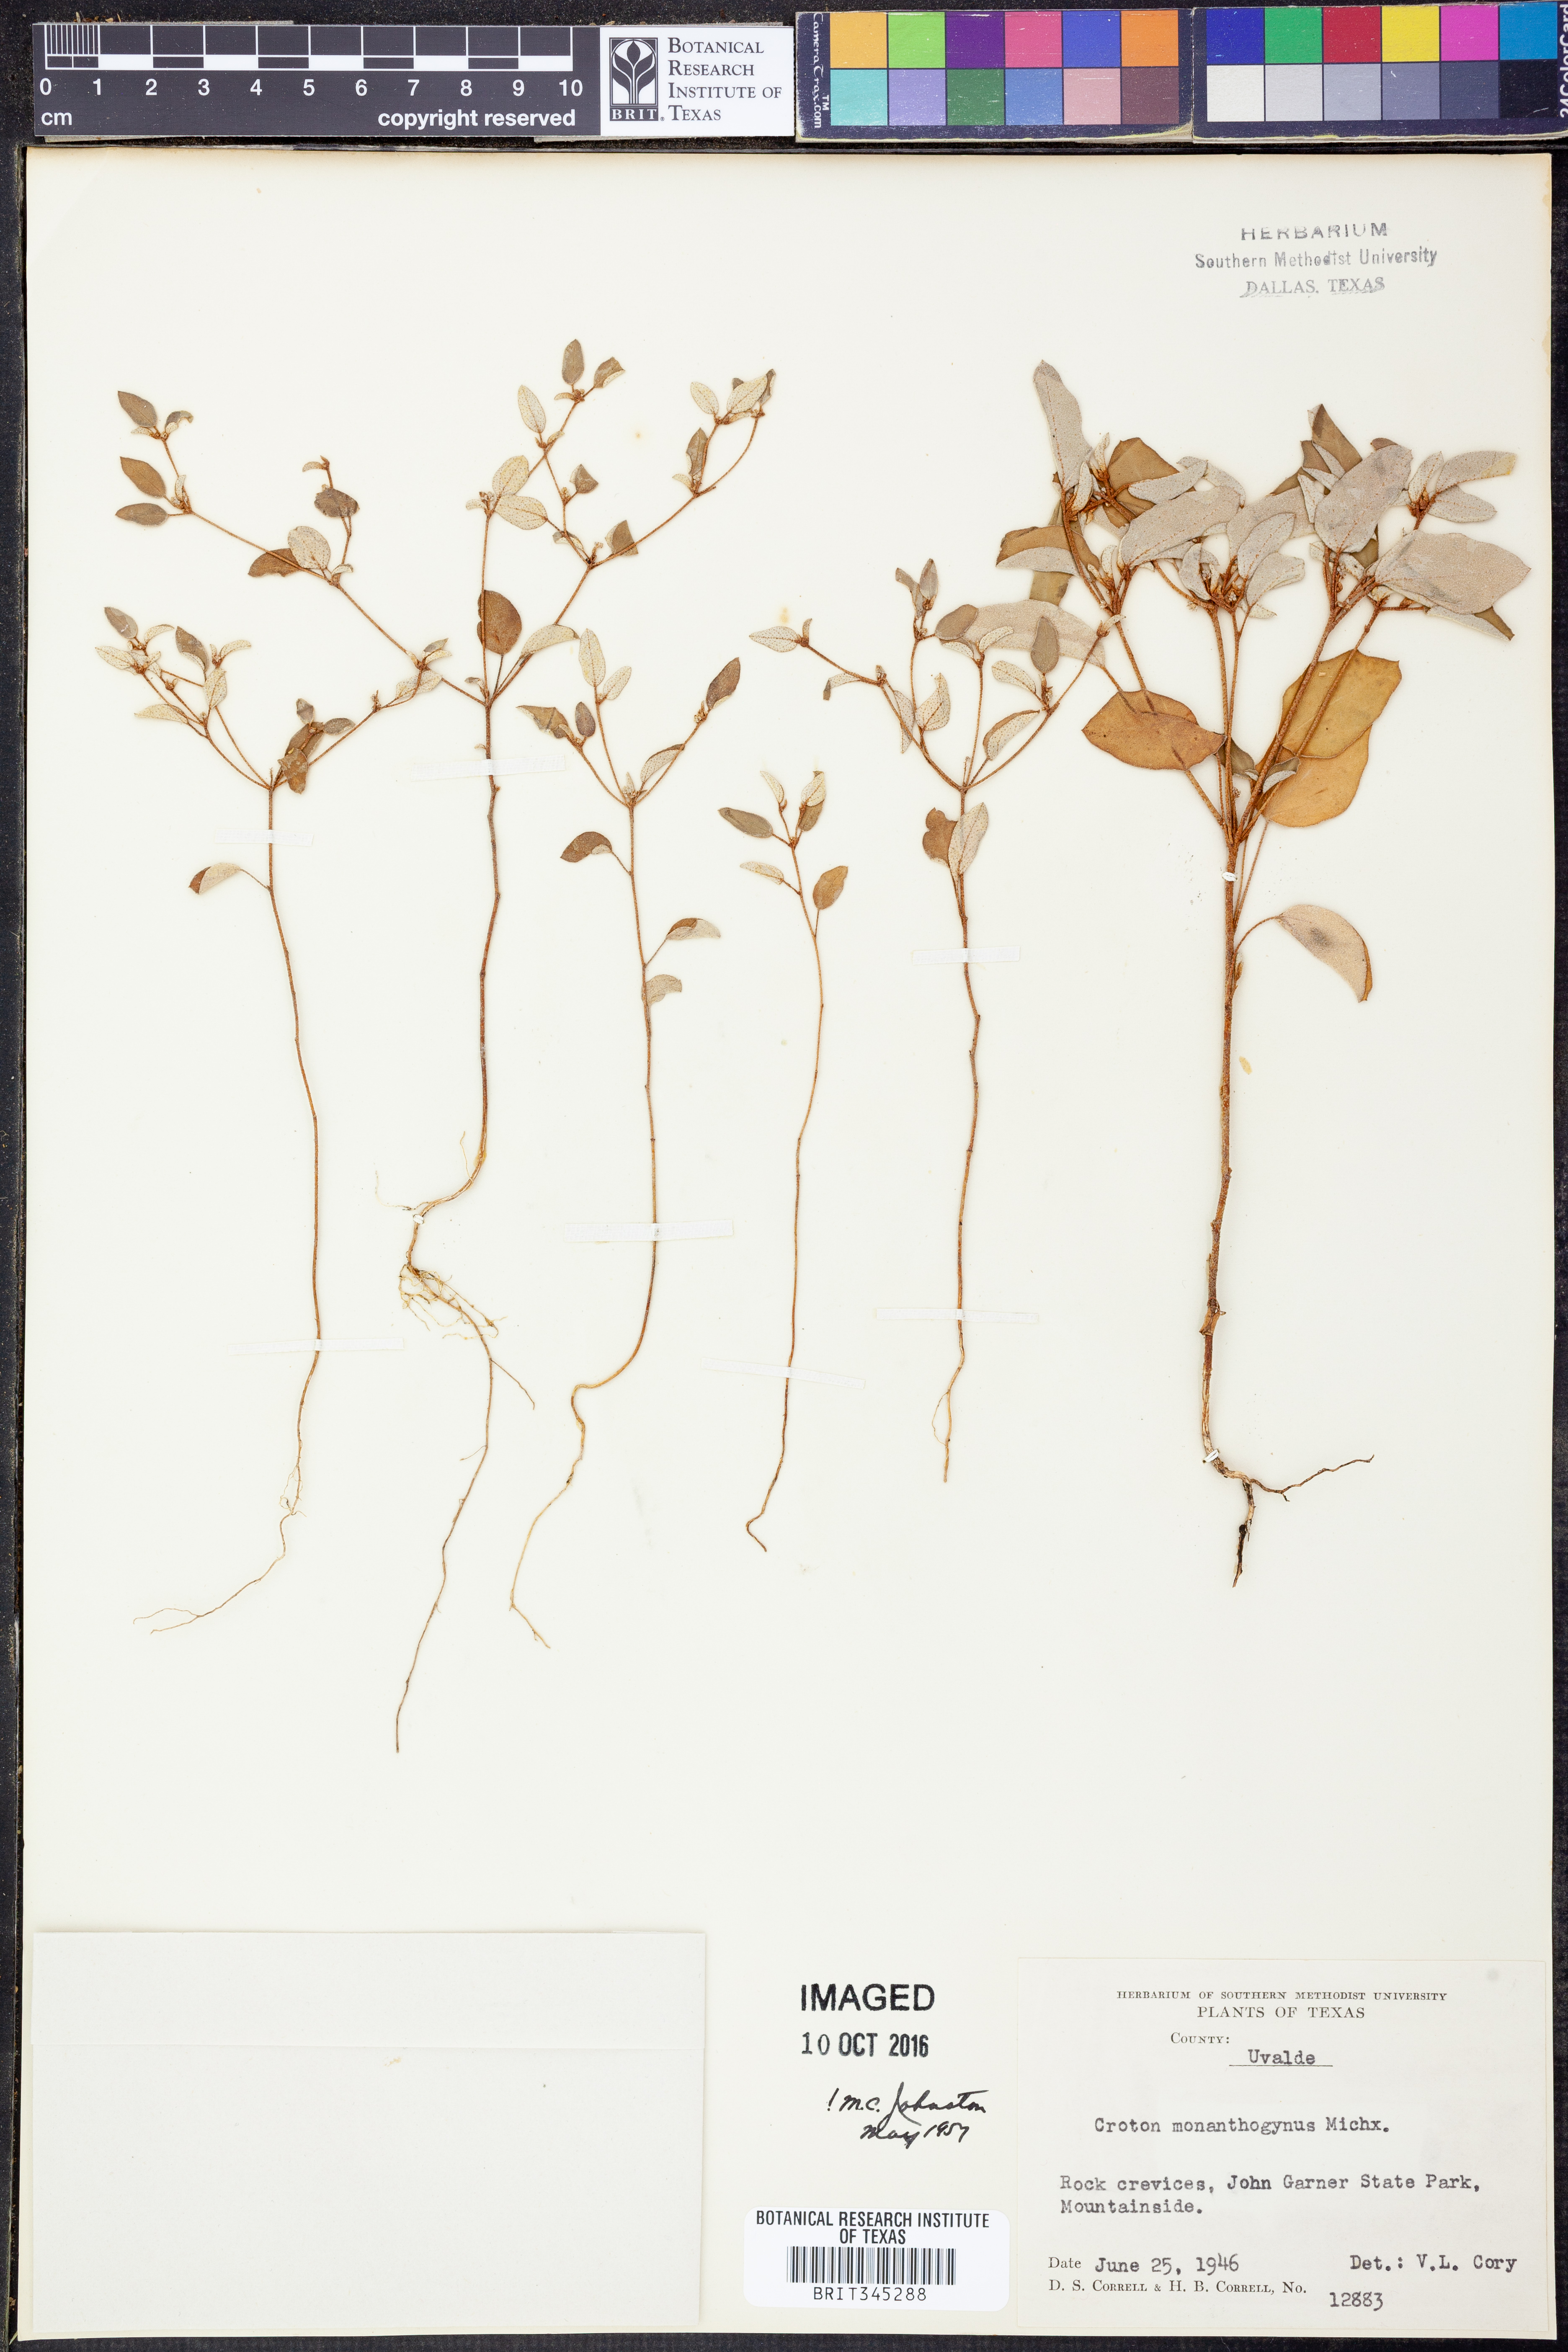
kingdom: Plantae
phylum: Tracheophyta
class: Magnoliopsida
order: Malpighiales
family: Euphorbiaceae
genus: Croton
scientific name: Croton monanthogynus
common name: One-seed croton
